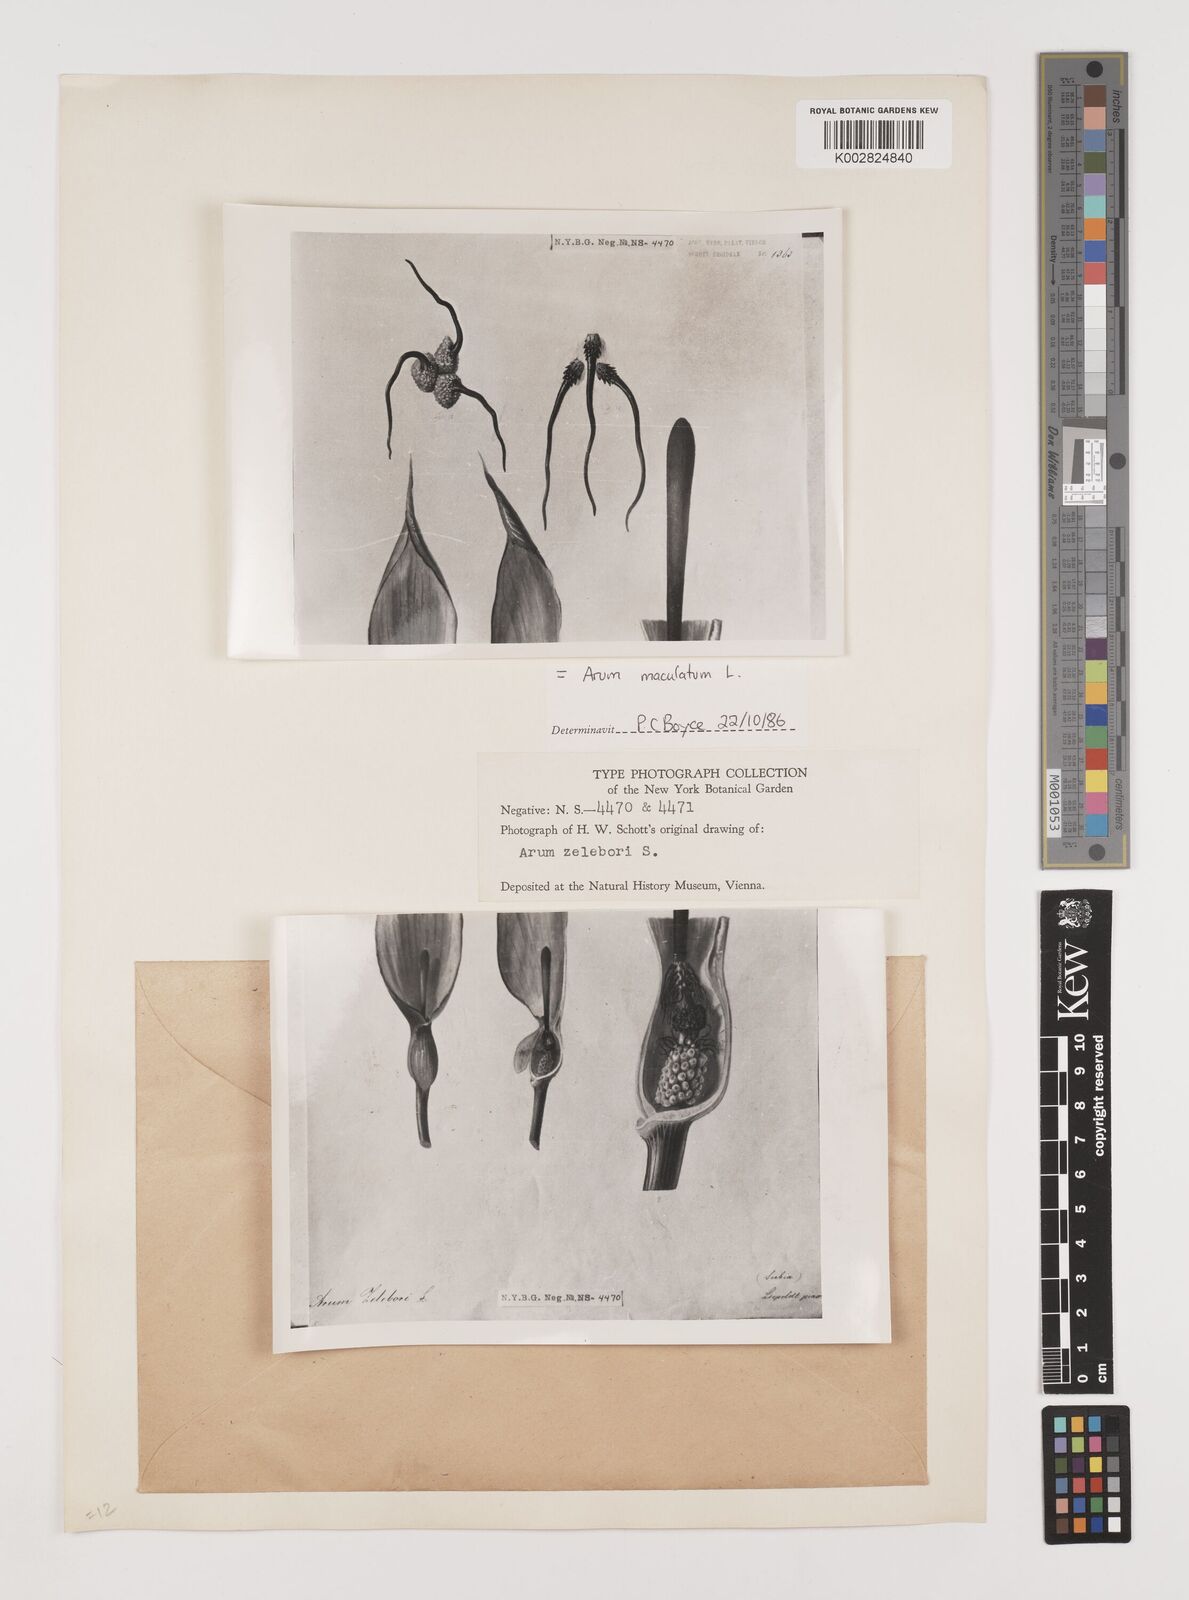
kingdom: Plantae
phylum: Tracheophyta
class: Liliopsida
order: Alismatales
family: Araceae
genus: Arum
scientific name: Arum maculatum
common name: Lords-and-ladies
